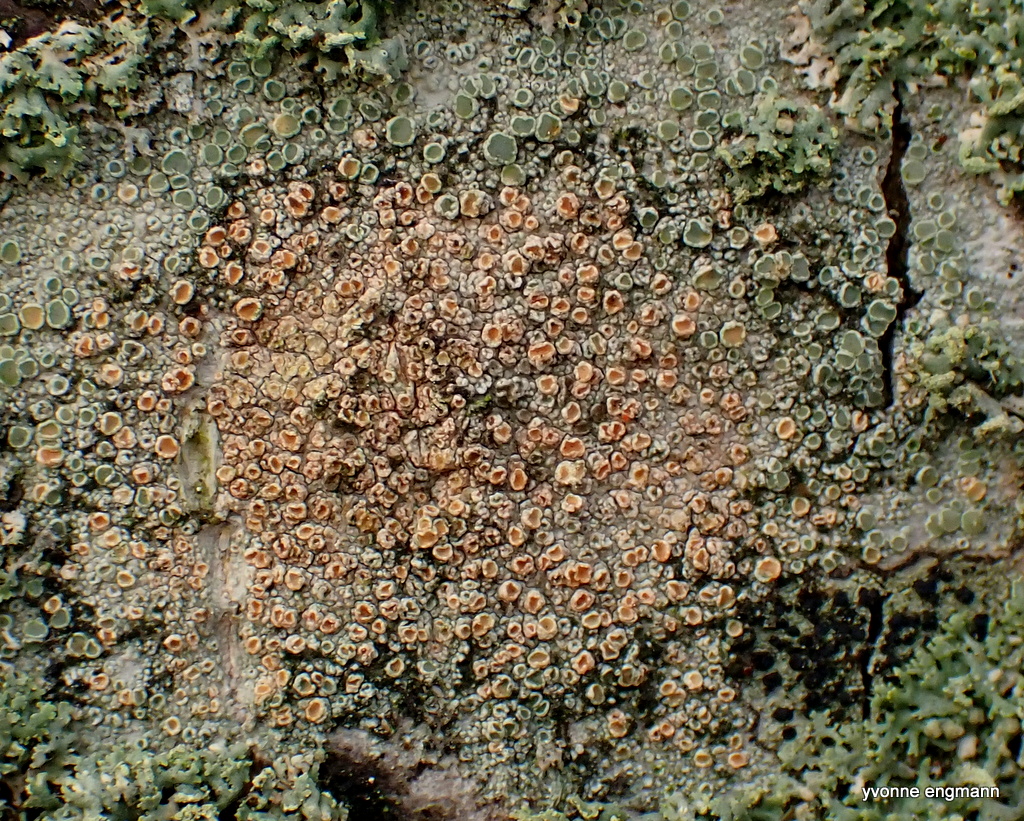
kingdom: Fungi
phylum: Ascomycota
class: Lecanoromycetes
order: Lecanorales
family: Lecanoraceae
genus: Lecanora
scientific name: Lecanora chlarotera
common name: brun kantskivelav
